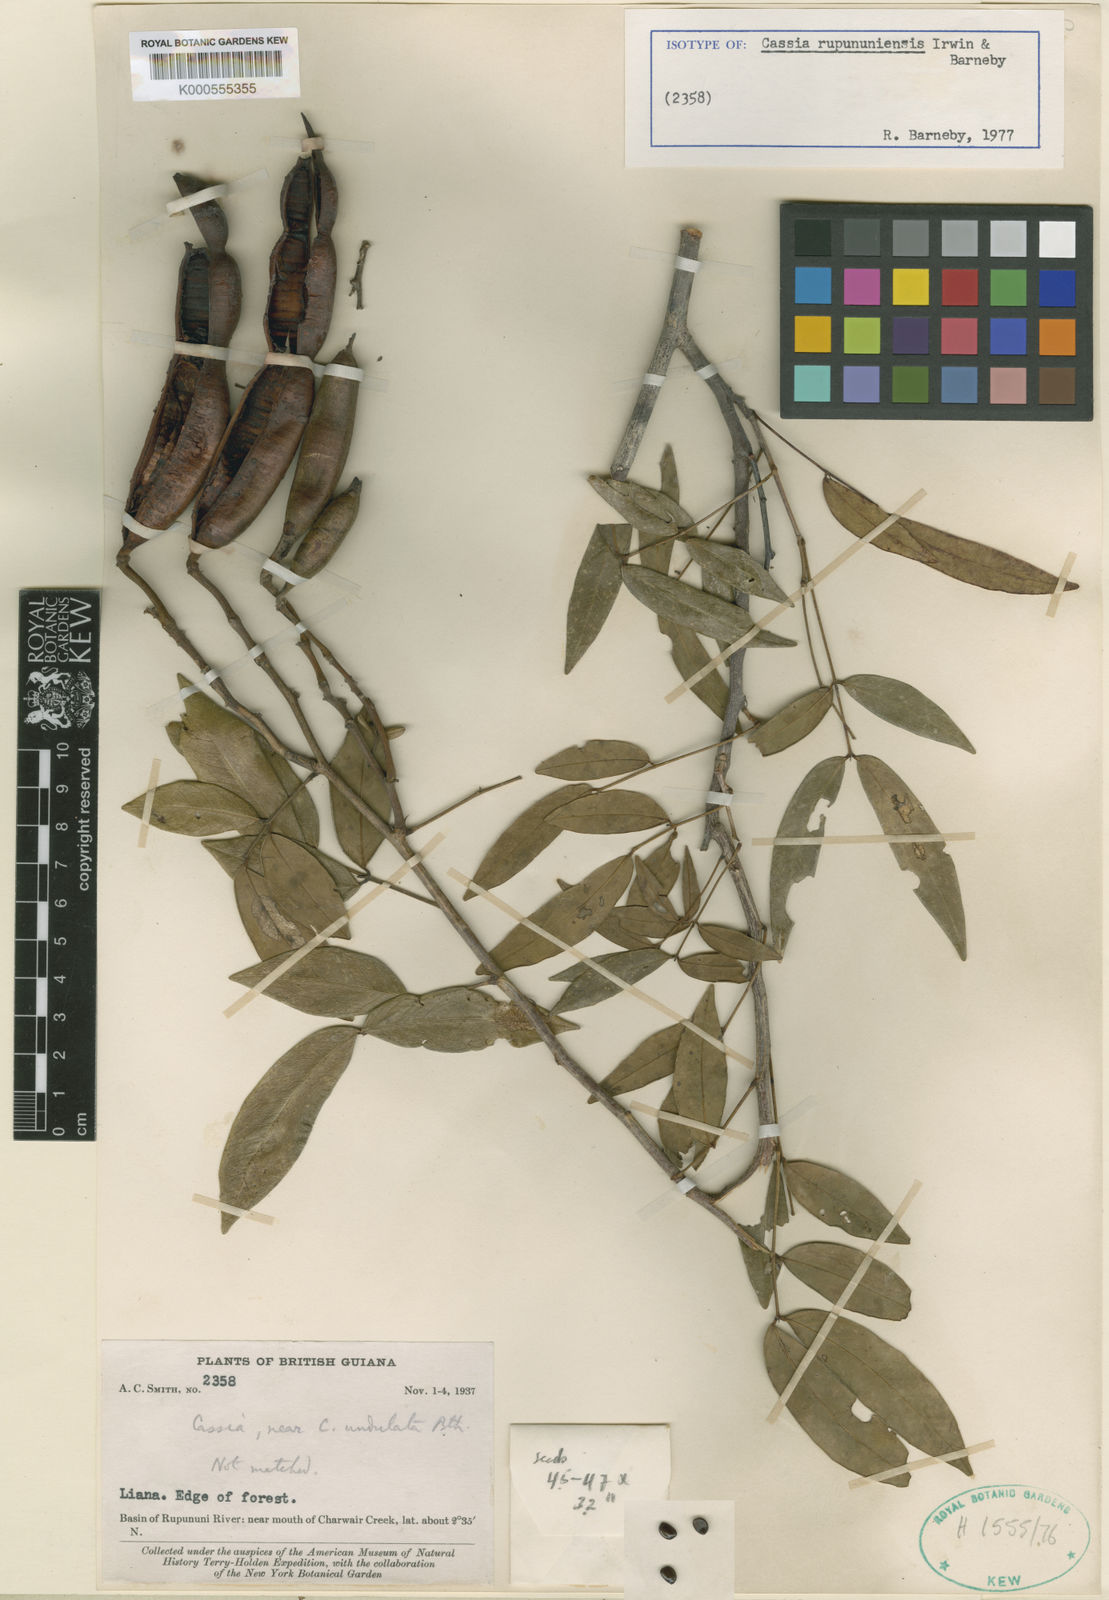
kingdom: Plantae
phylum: Tracheophyta
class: Magnoliopsida
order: Fabales
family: Fabaceae
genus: Senna
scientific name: Senna rupununiensis
